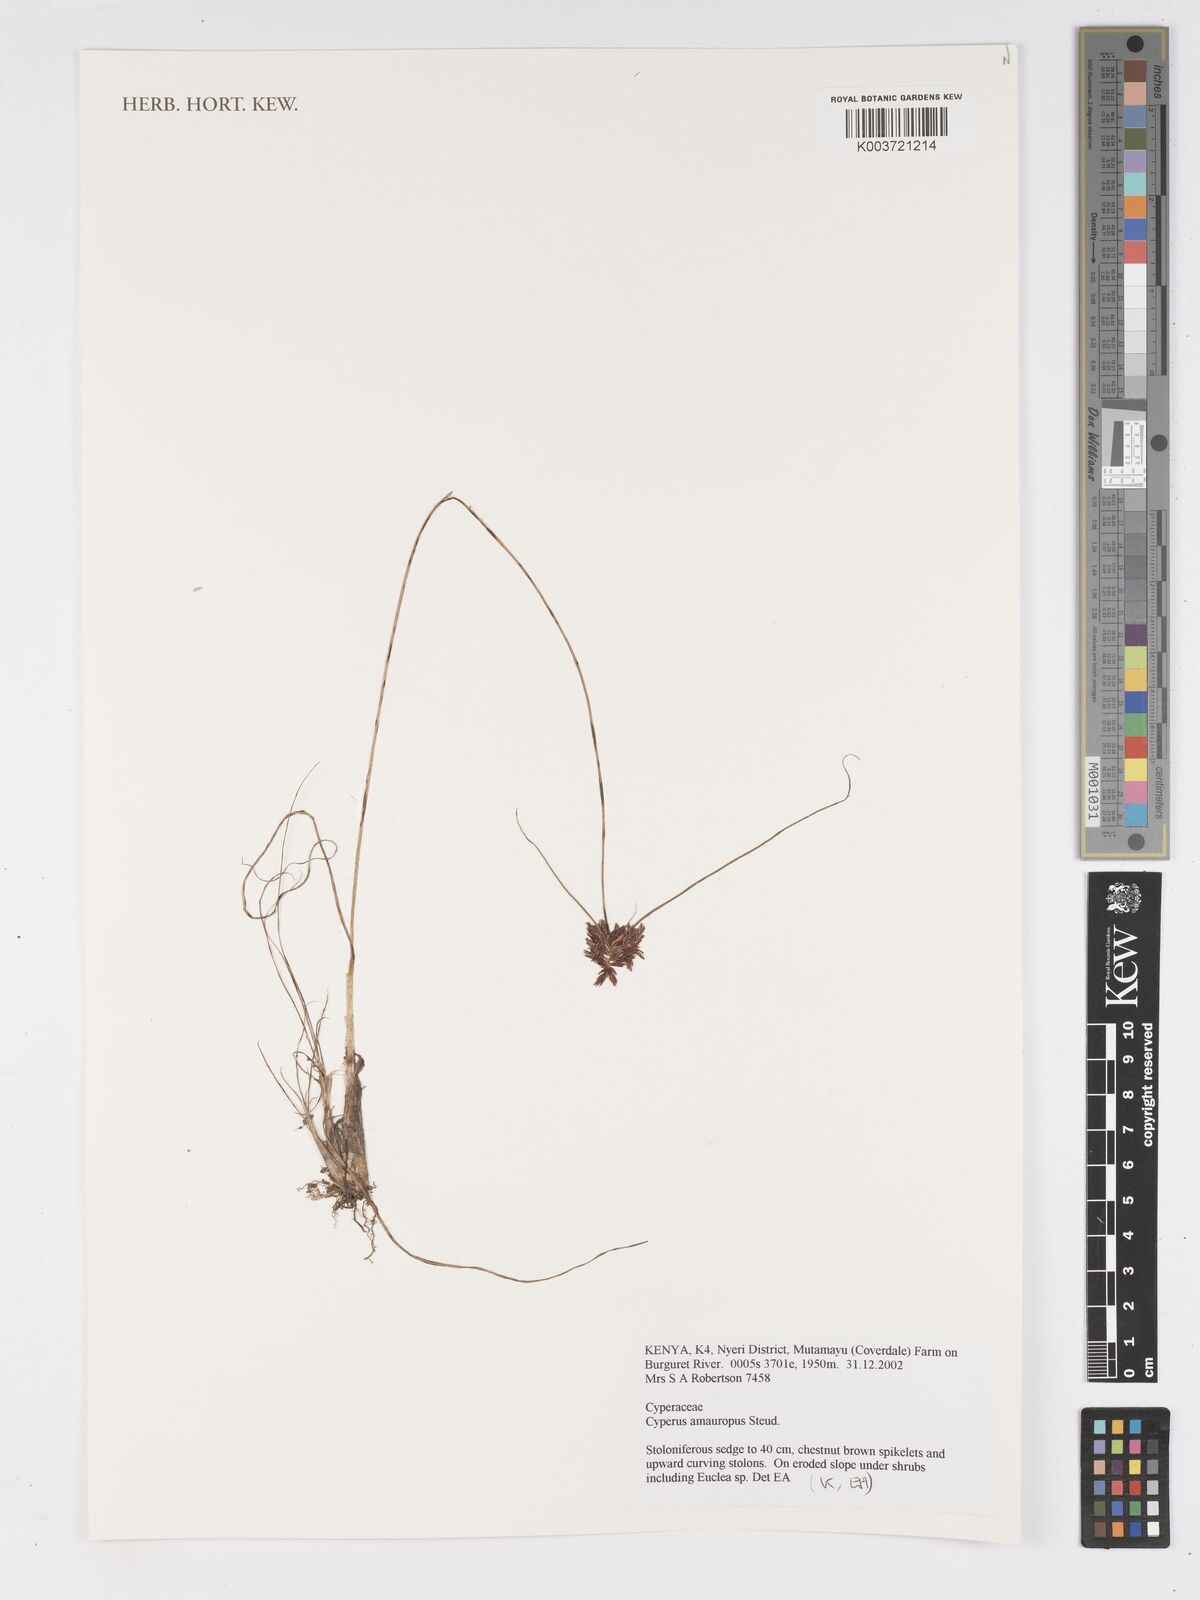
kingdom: Plantae
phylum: Tracheophyta
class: Liliopsida
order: Poales
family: Cyperaceae
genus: Cyperus
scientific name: Cyperus amauropus
